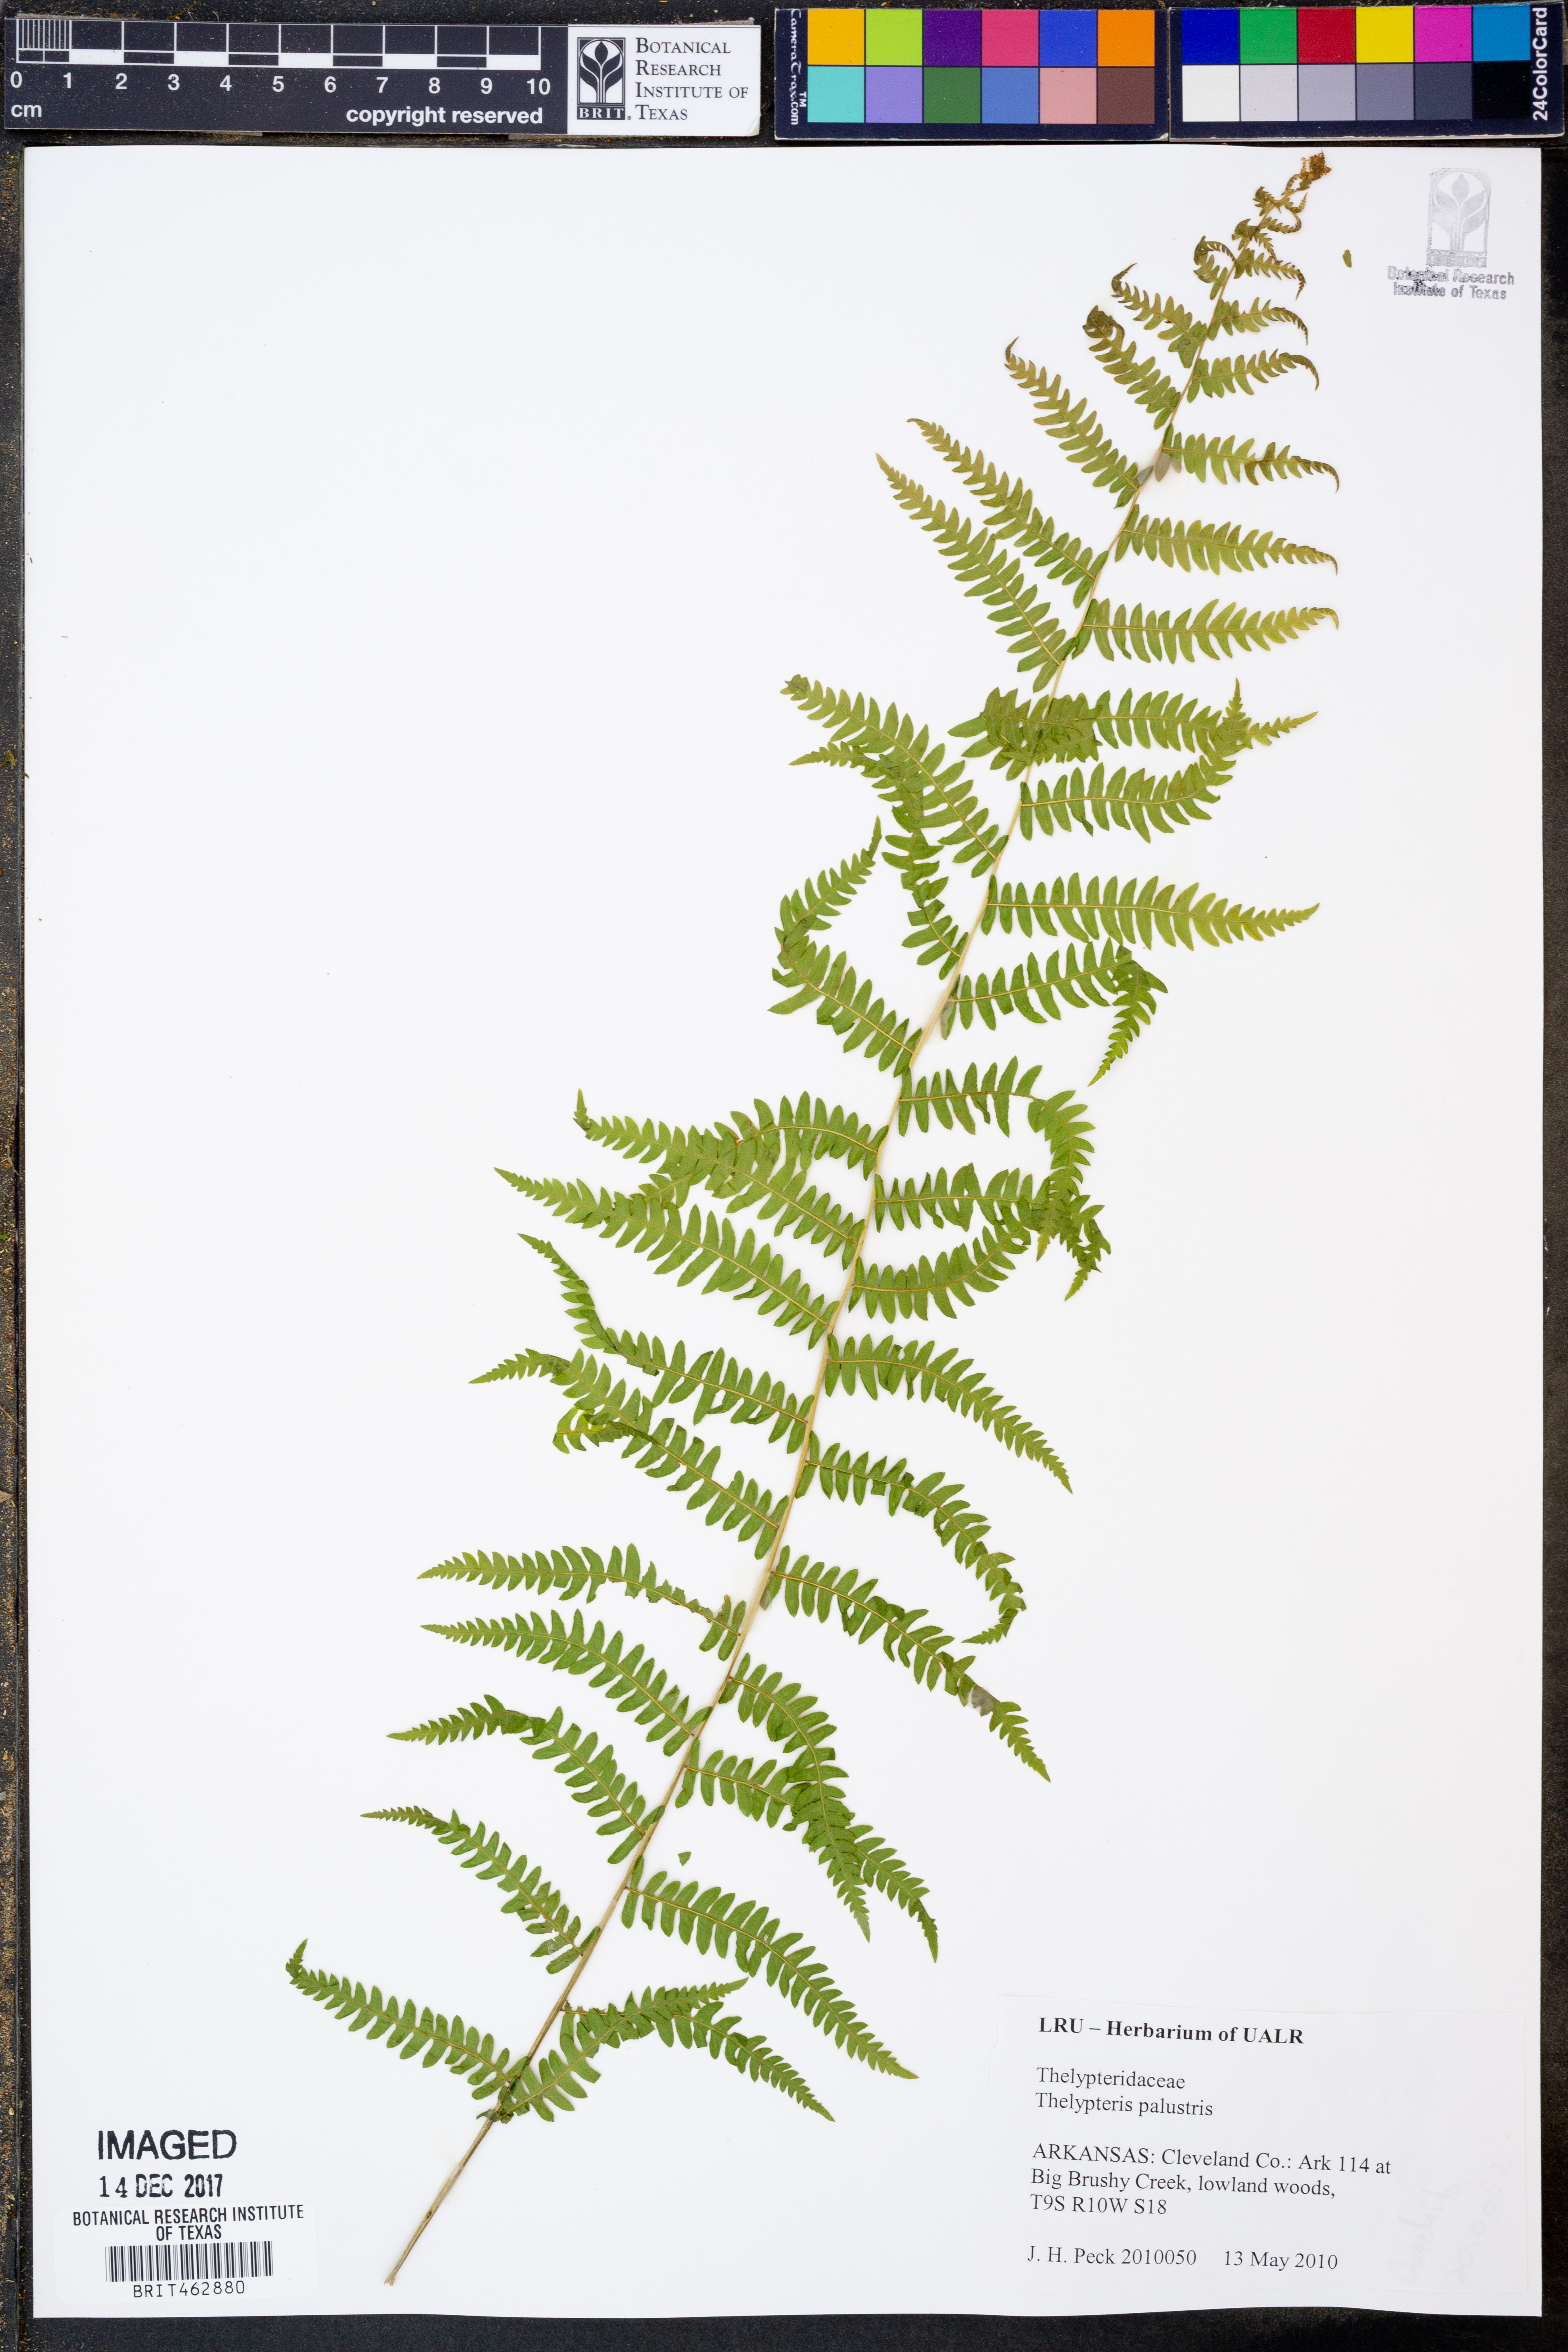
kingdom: Plantae
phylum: Tracheophyta
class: Polypodiopsida
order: Polypodiales
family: Thelypteridaceae
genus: Thelypteris
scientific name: Thelypteris palustris
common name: Marsh fern
